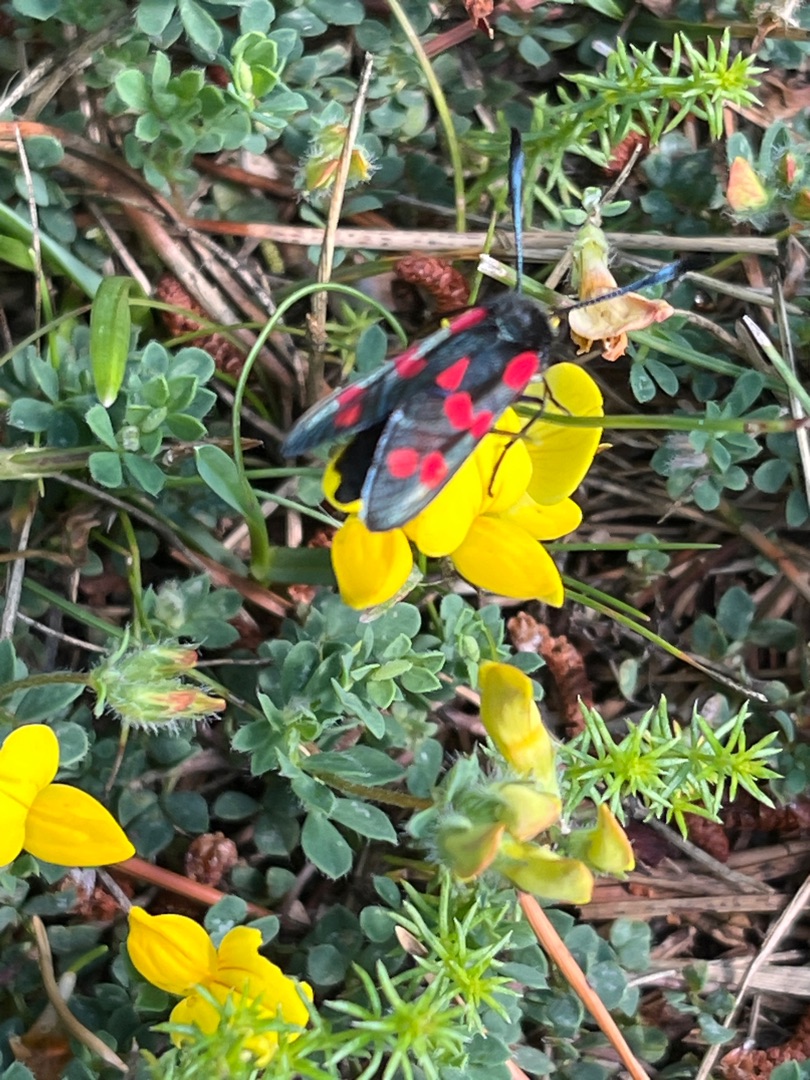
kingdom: Animalia
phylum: Arthropoda
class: Insecta
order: Lepidoptera
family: Zygaenidae
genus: Zygaena
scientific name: Zygaena filipendulae
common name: Seksplettet køllesværmer
